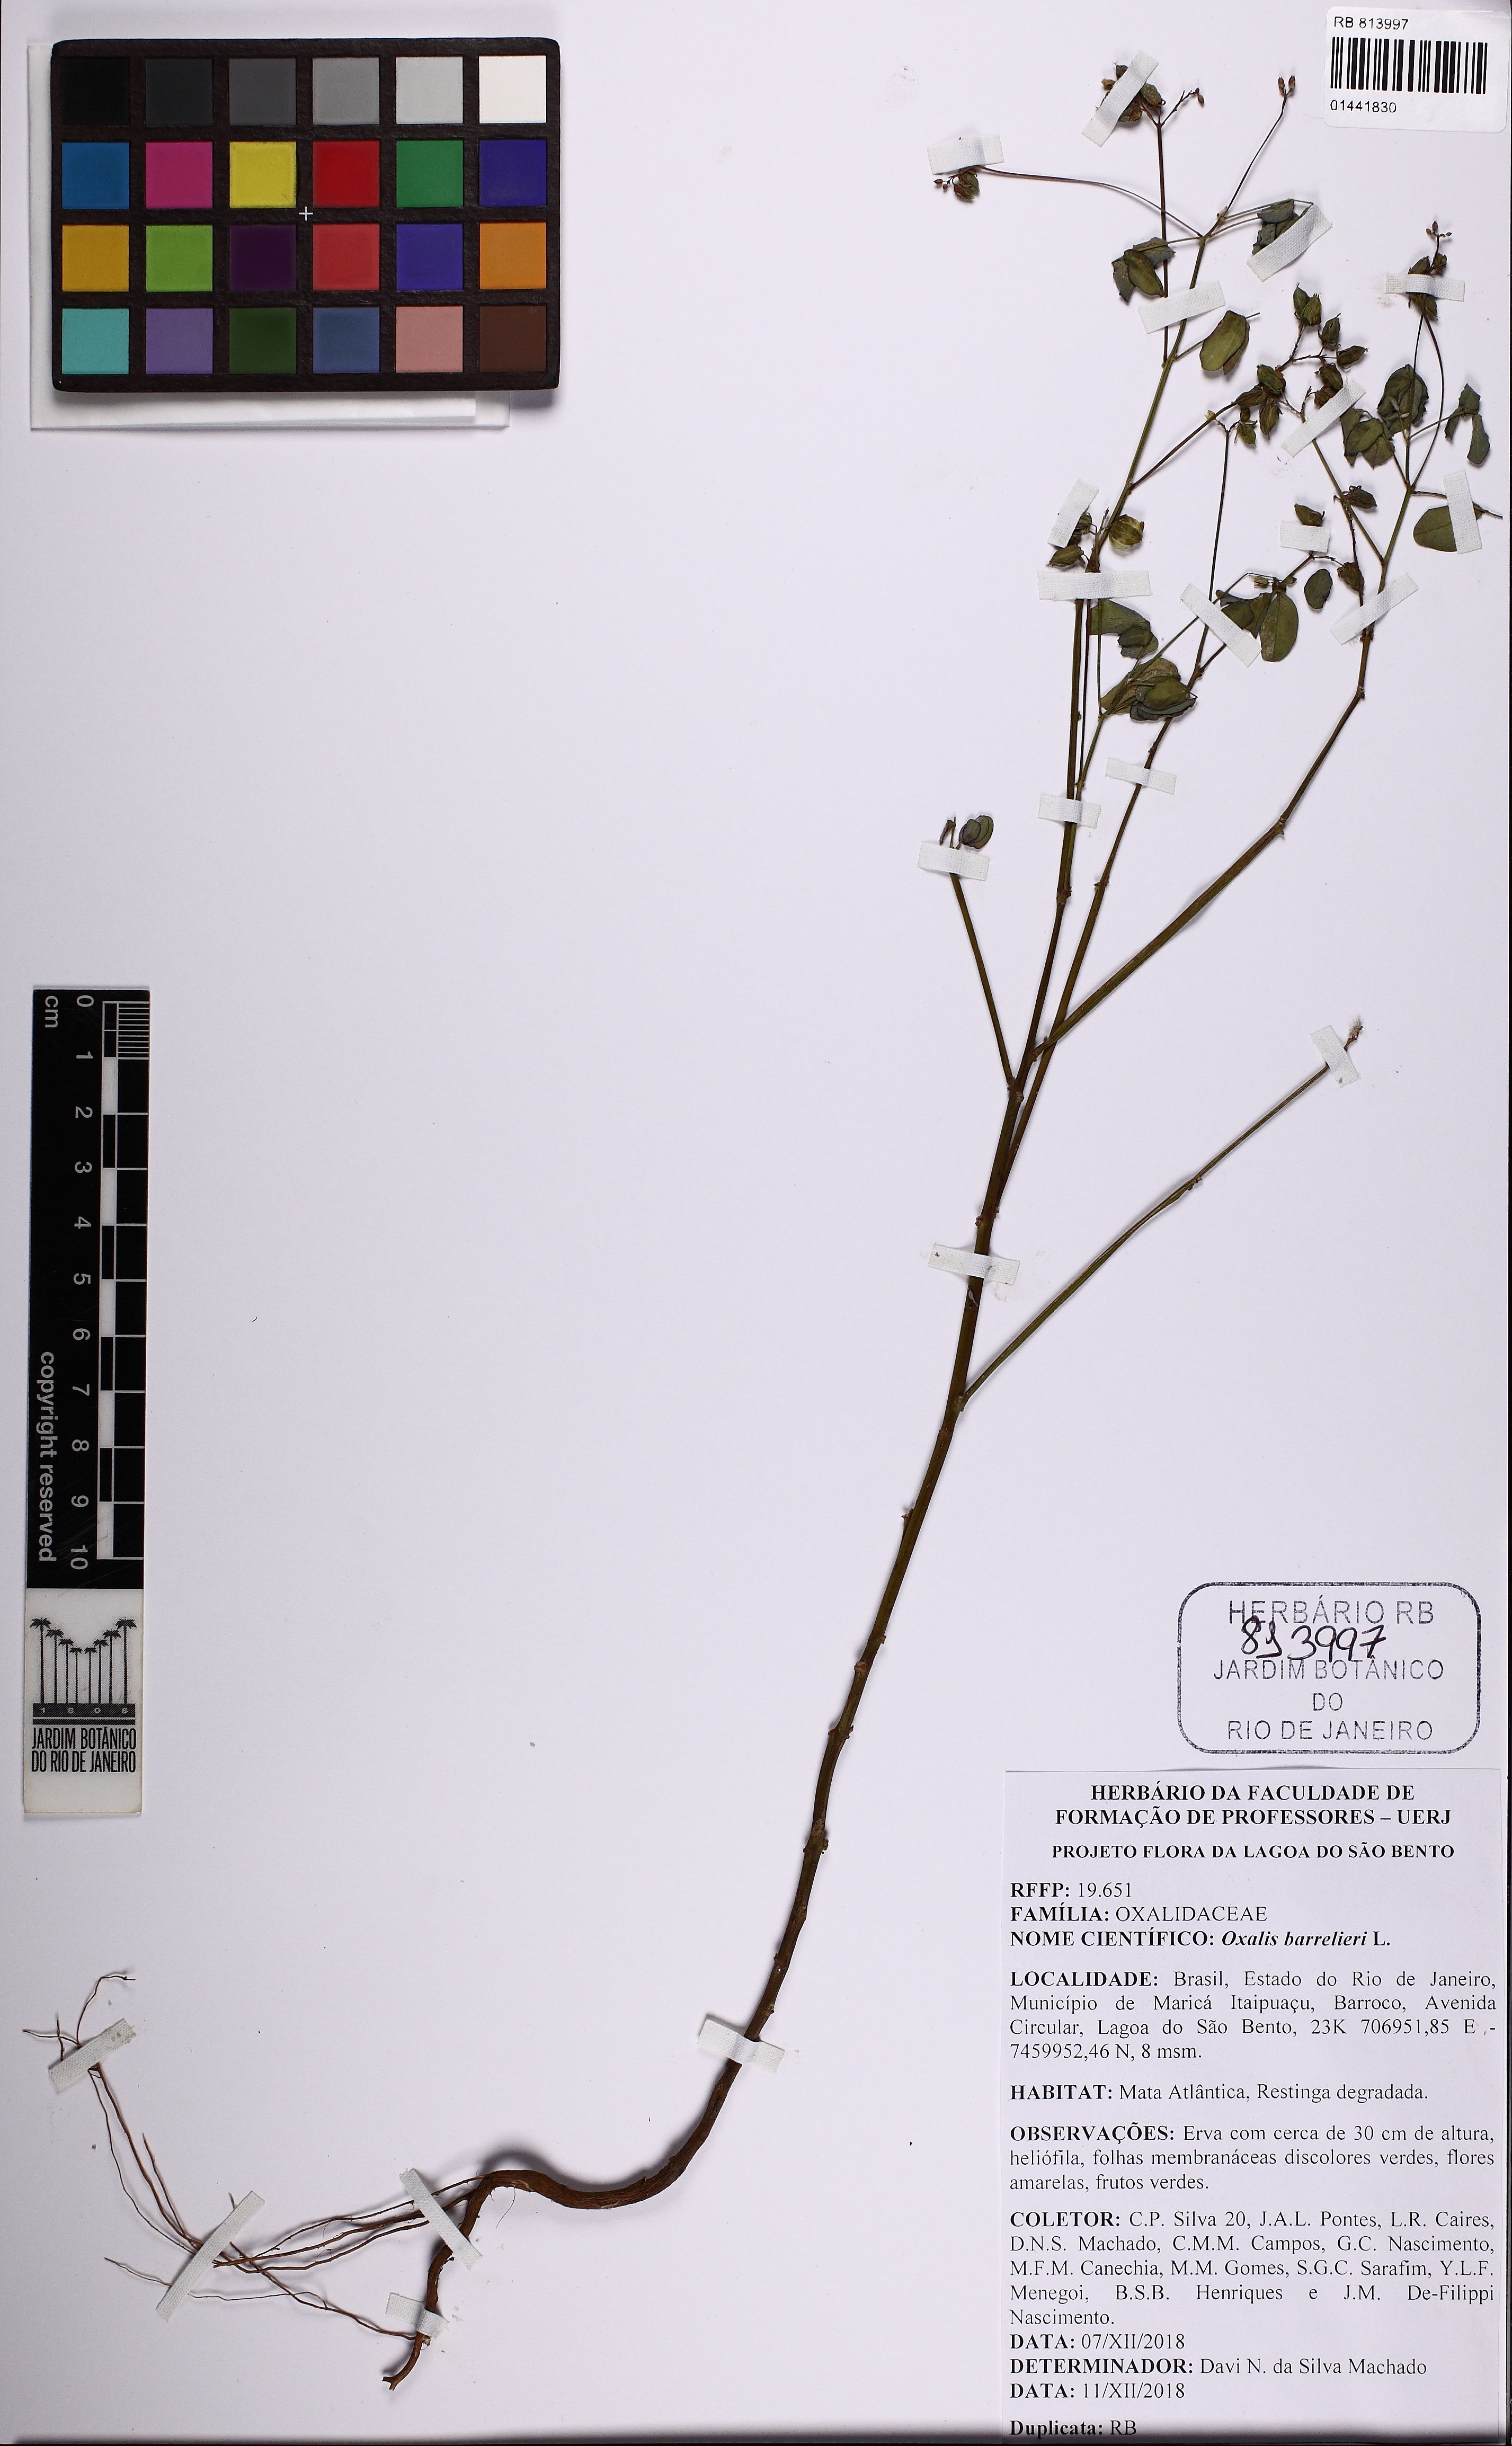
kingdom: Plantae
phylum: Tracheophyta
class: Magnoliopsida
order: Oxalidales
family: Oxalidaceae
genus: Oxalis
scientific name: Oxalis barrelieri
